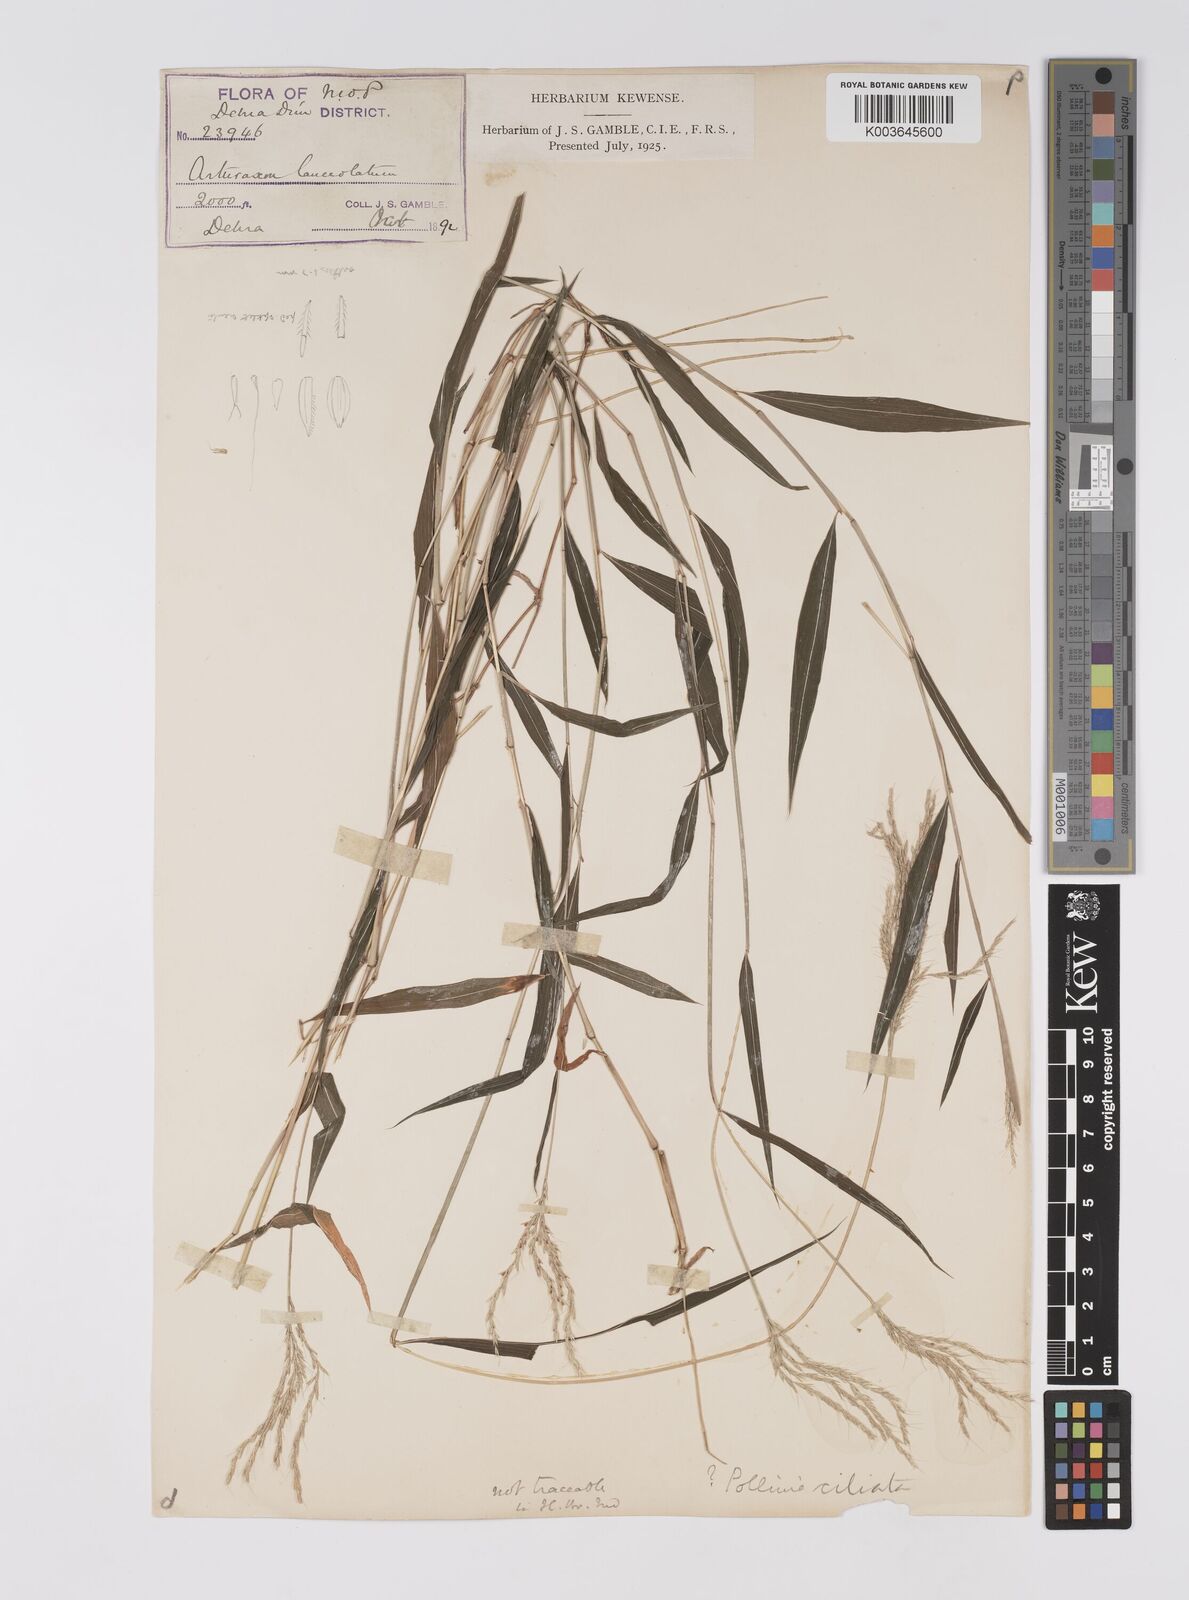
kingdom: Plantae
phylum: Tracheophyta
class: Liliopsida
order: Poales
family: Poaceae
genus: Microstegium
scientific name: Microstegium fasciculatum
